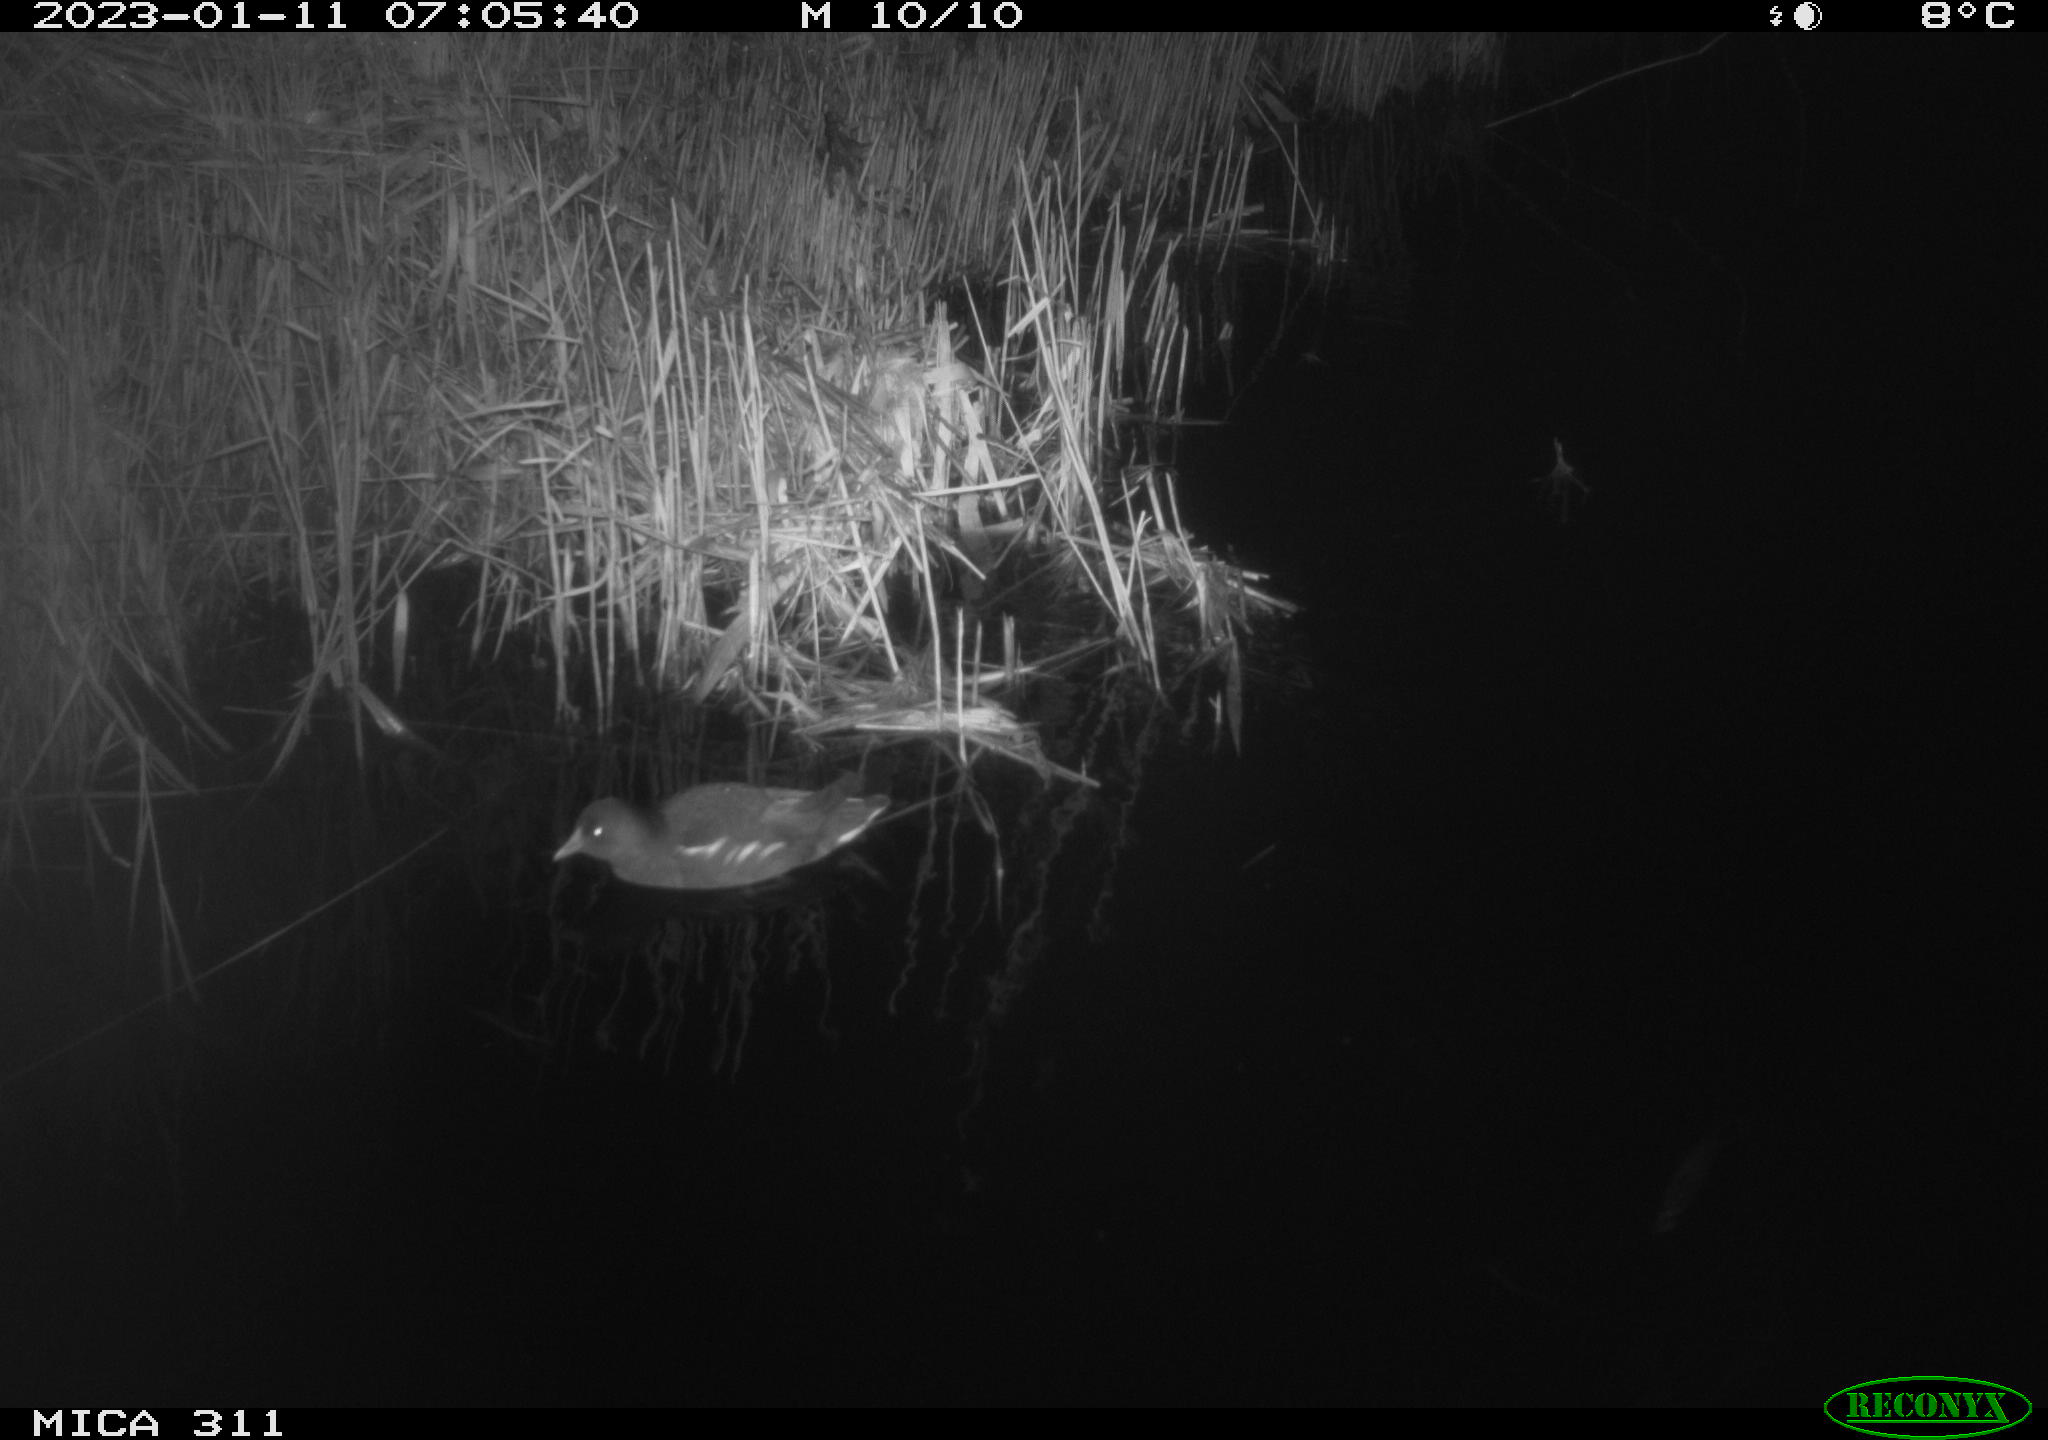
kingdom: Animalia
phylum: Chordata
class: Aves
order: Gruiformes
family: Rallidae
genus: Gallinula
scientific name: Gallinula chloropus
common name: Common moorhen
